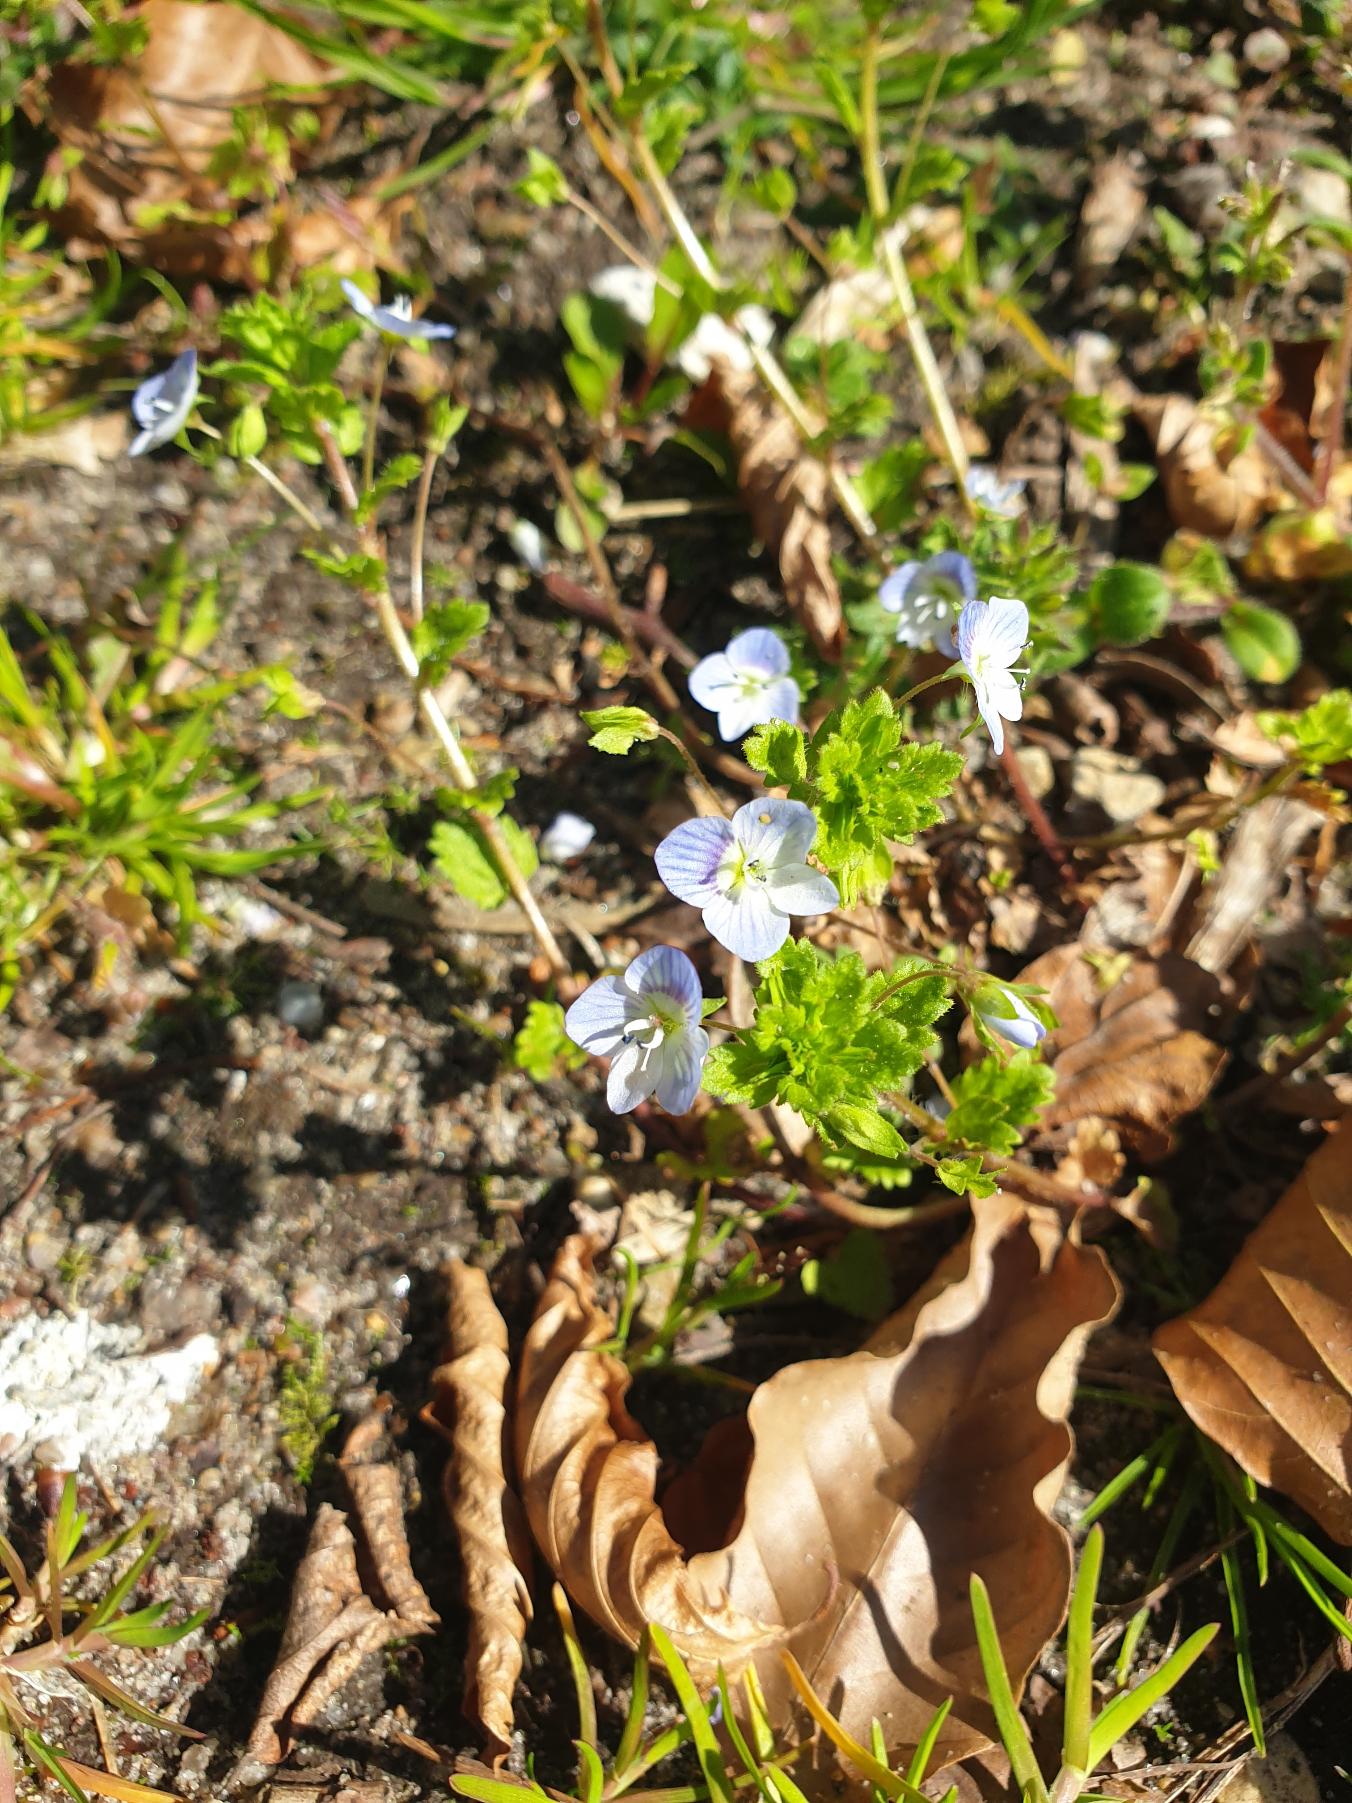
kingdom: Plantae
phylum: Tracheophyta
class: Magnoliopsida
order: Lamiales
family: Plantaginaceae
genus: Veronica
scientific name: Veronica persica
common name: Storkronet ærenpris
